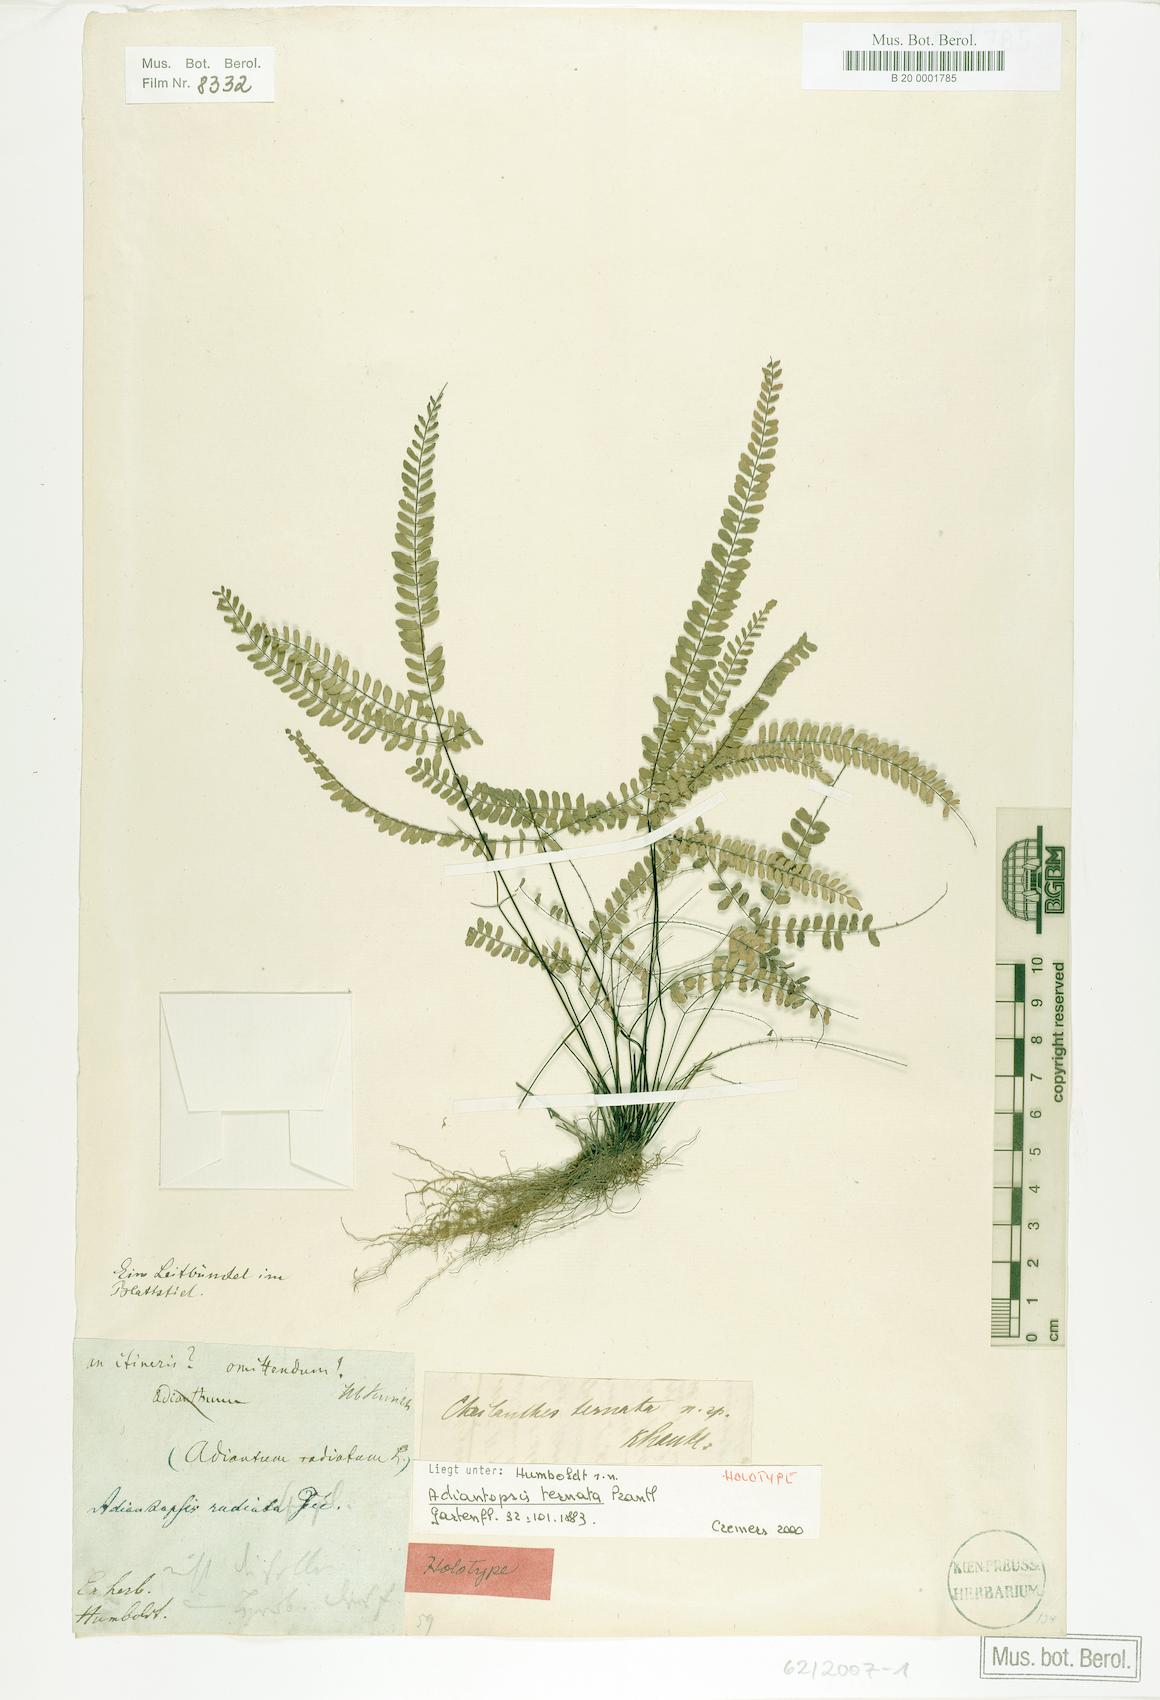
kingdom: Plantae
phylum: Tracheophyta
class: Polypodiopsida
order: Polypodiales
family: Pteridaceae
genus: Adiantopsis
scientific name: Adiantopsis radiata
